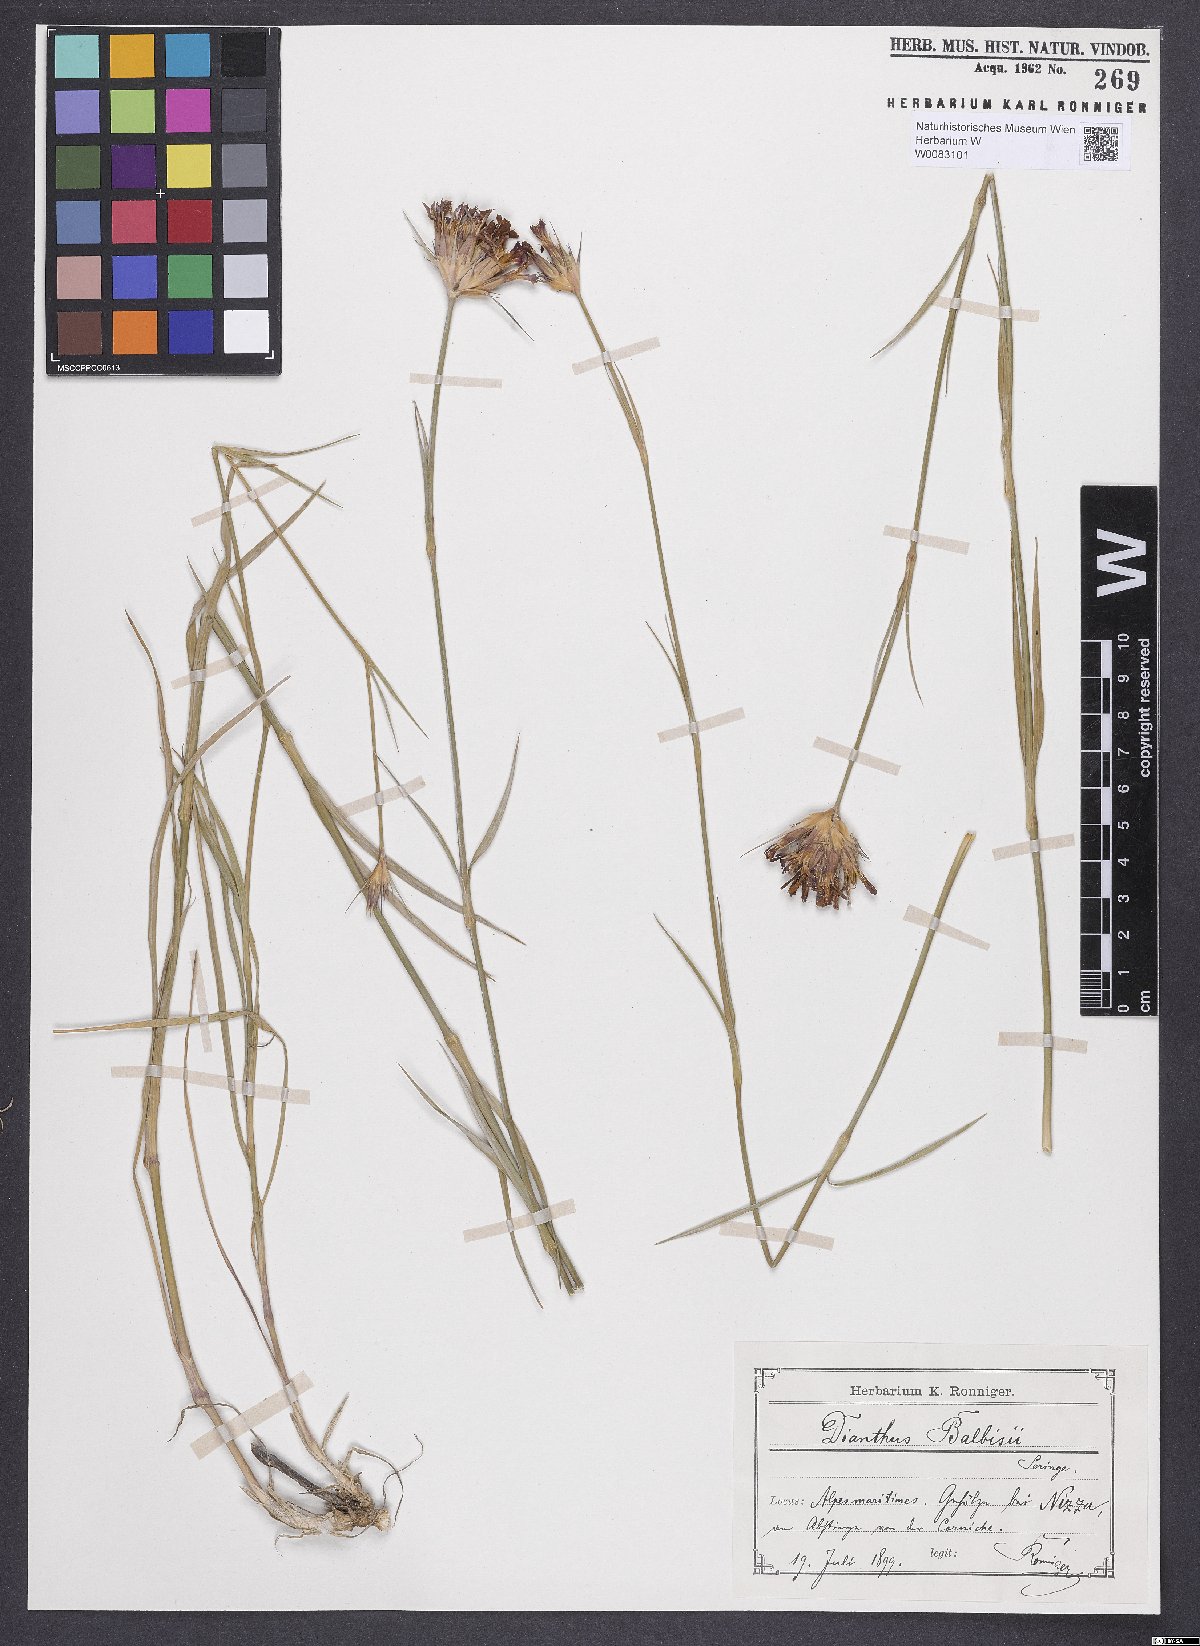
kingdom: Plantae
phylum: Tracheophyta
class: Magnoliopsida
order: Caryophyllales
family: Caryophyllaceae
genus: Dianthus
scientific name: Dianthus crassipes
